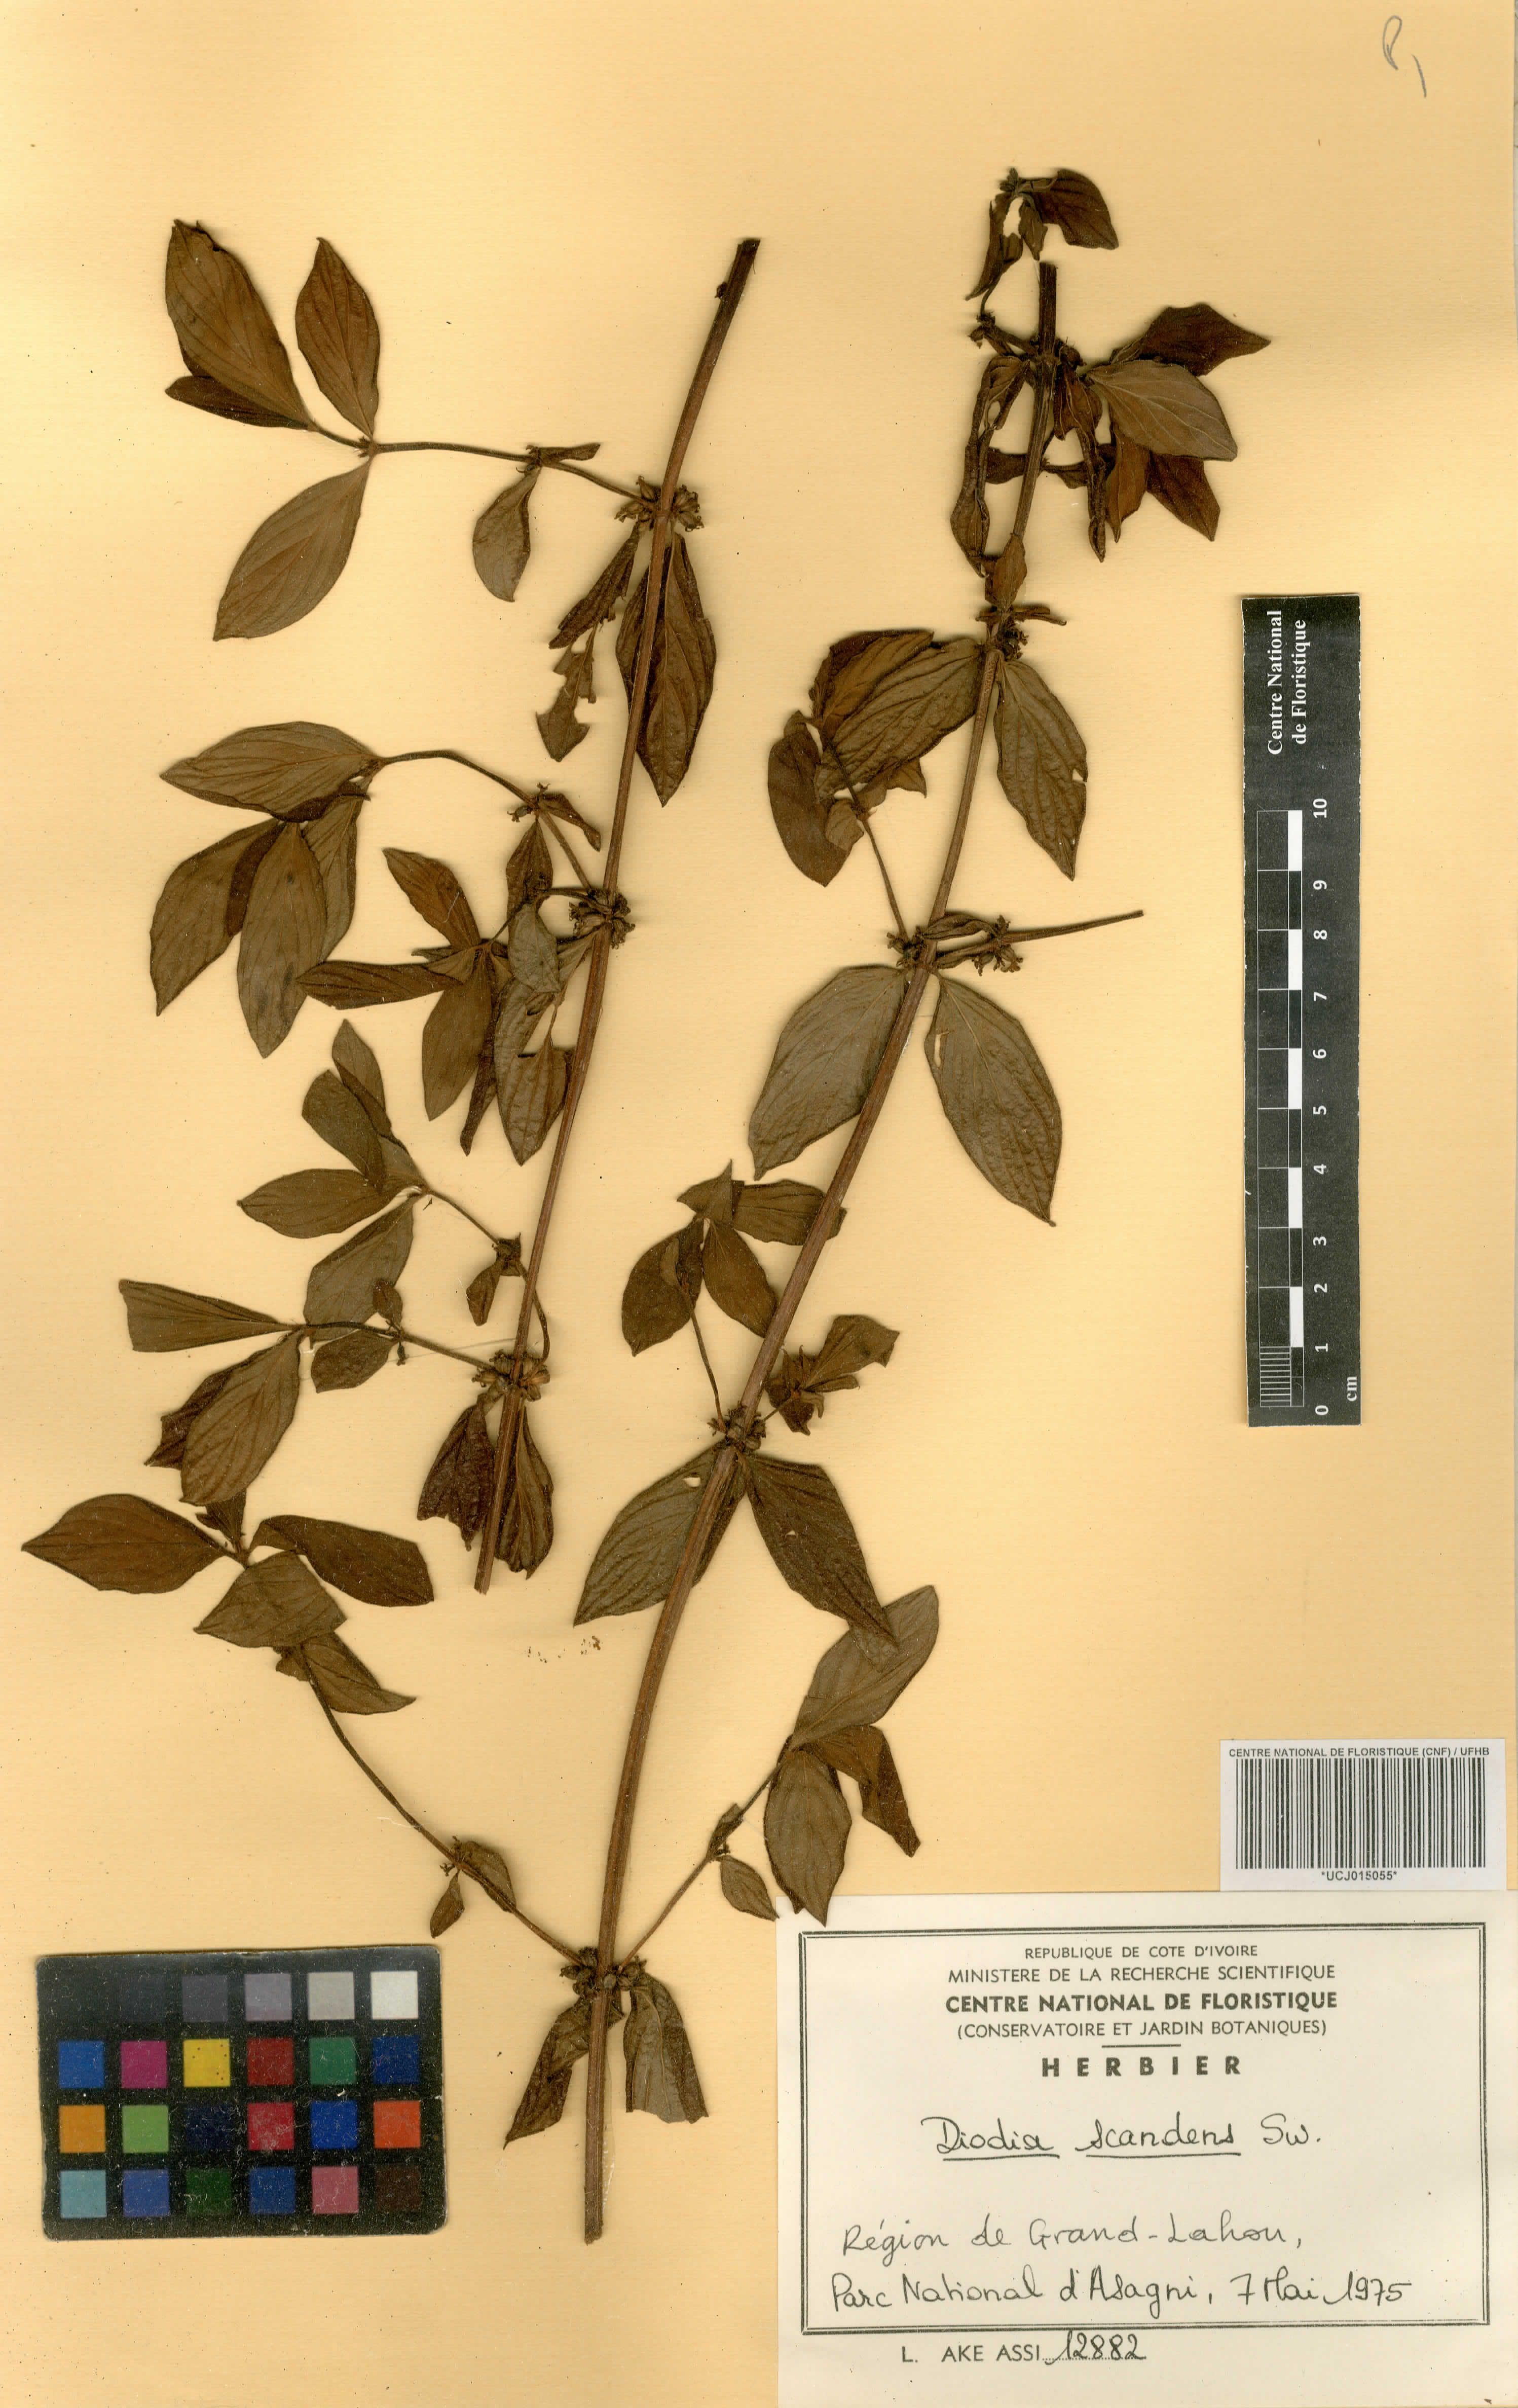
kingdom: Plantae
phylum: Tracheophyta
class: Magnoliopsida
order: Gentianales
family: Rubiaceae
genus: Hexasepalum
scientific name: Hexasepalum scandens
